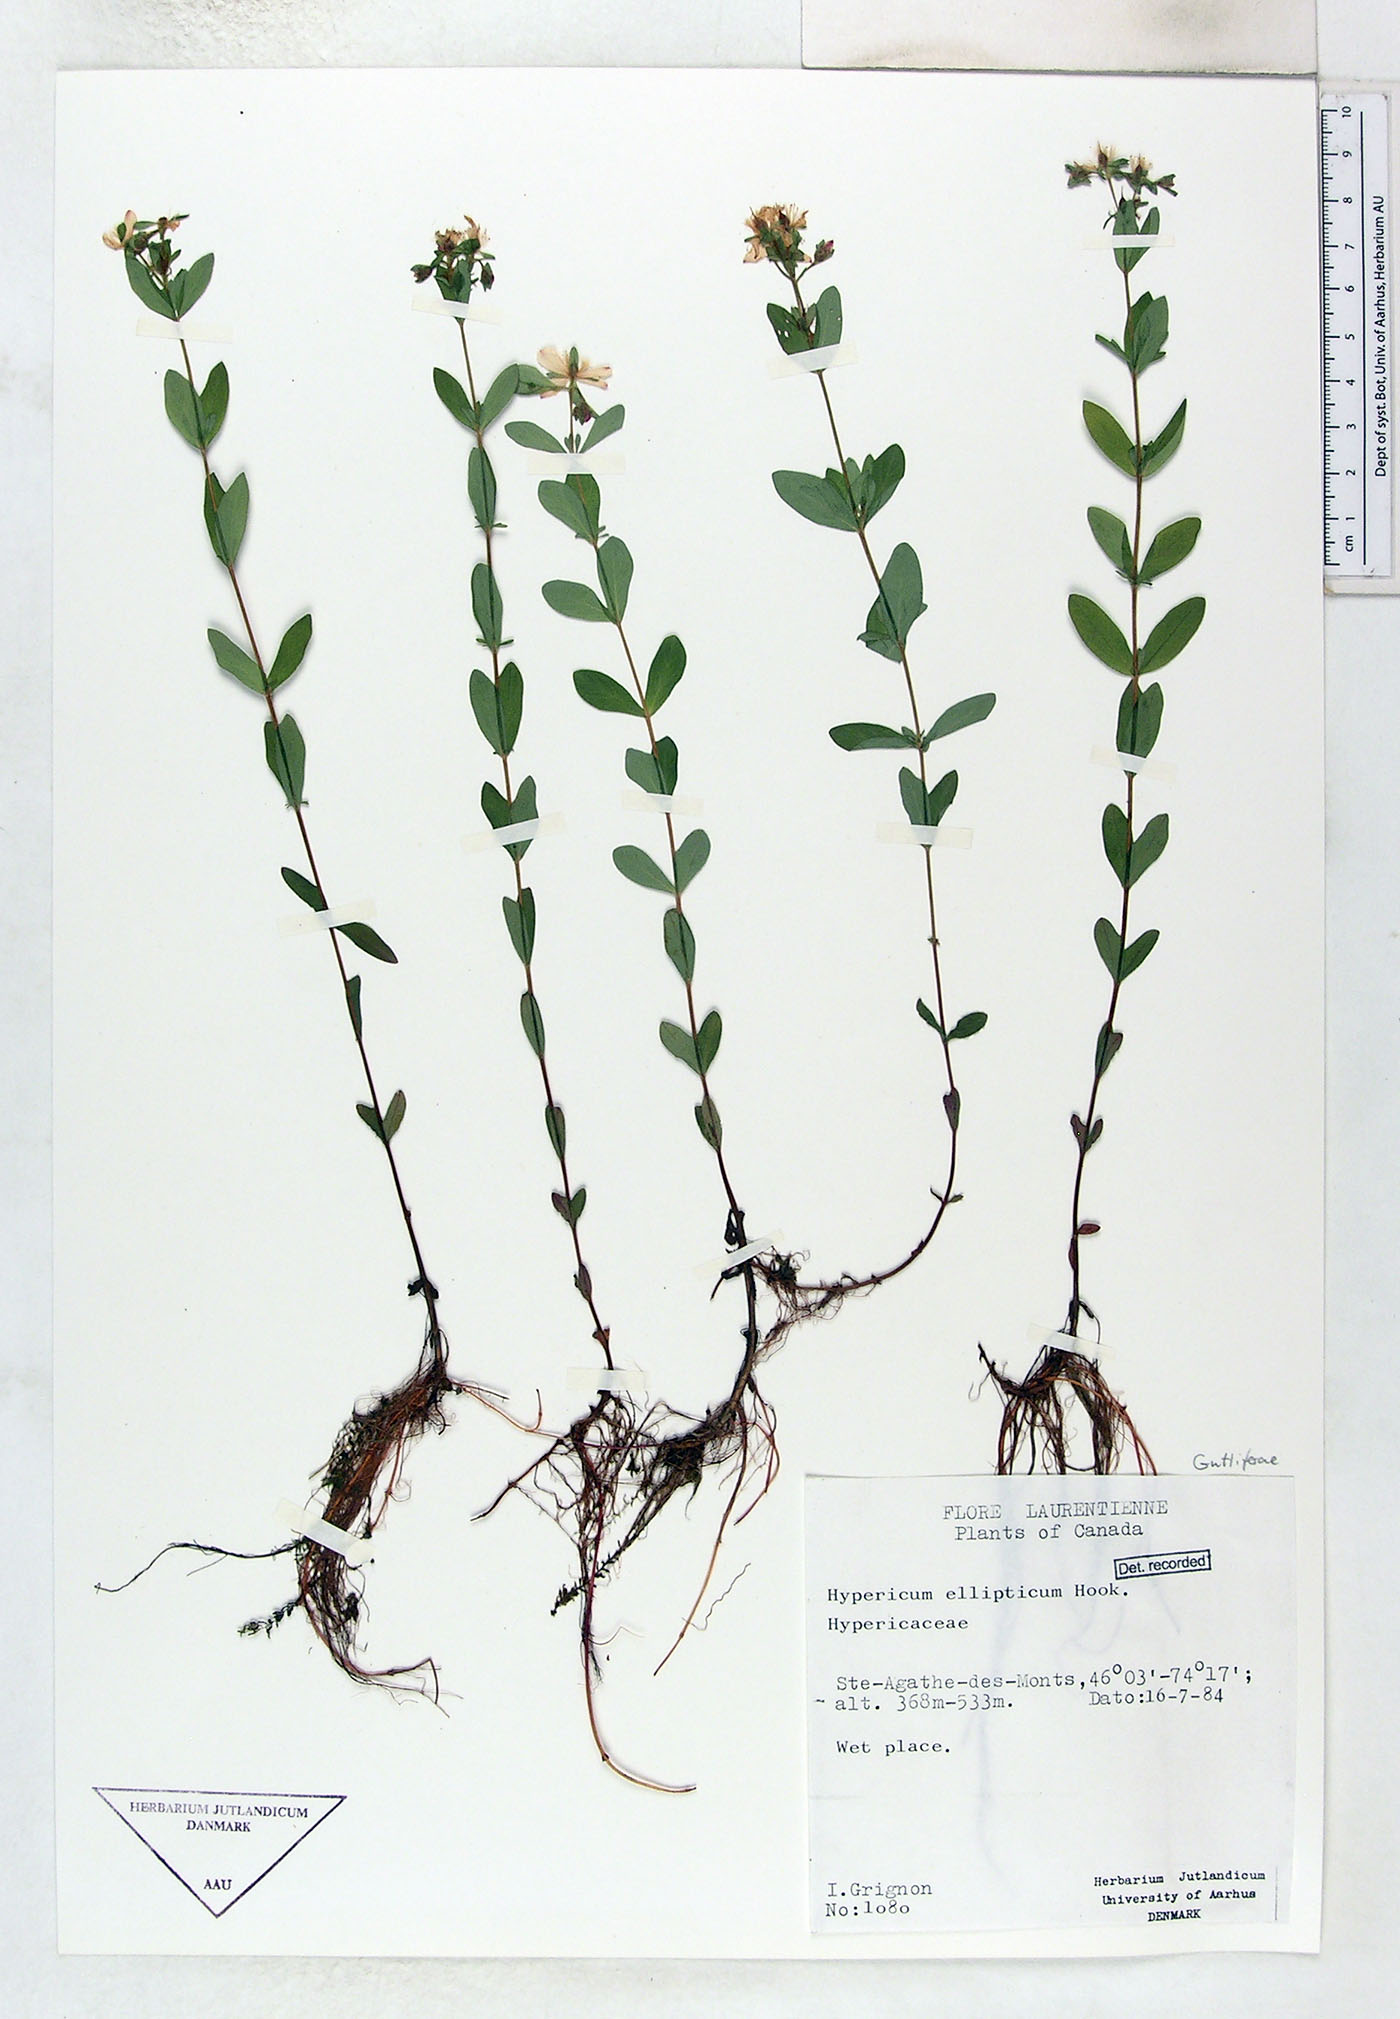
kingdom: Plantae
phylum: Tracheophyta
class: Magnoliopsida
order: Malpighiales
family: Hypericaceae
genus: Hypericum
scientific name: Hypericum ellipticum
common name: Elliptic st. john's-wort
